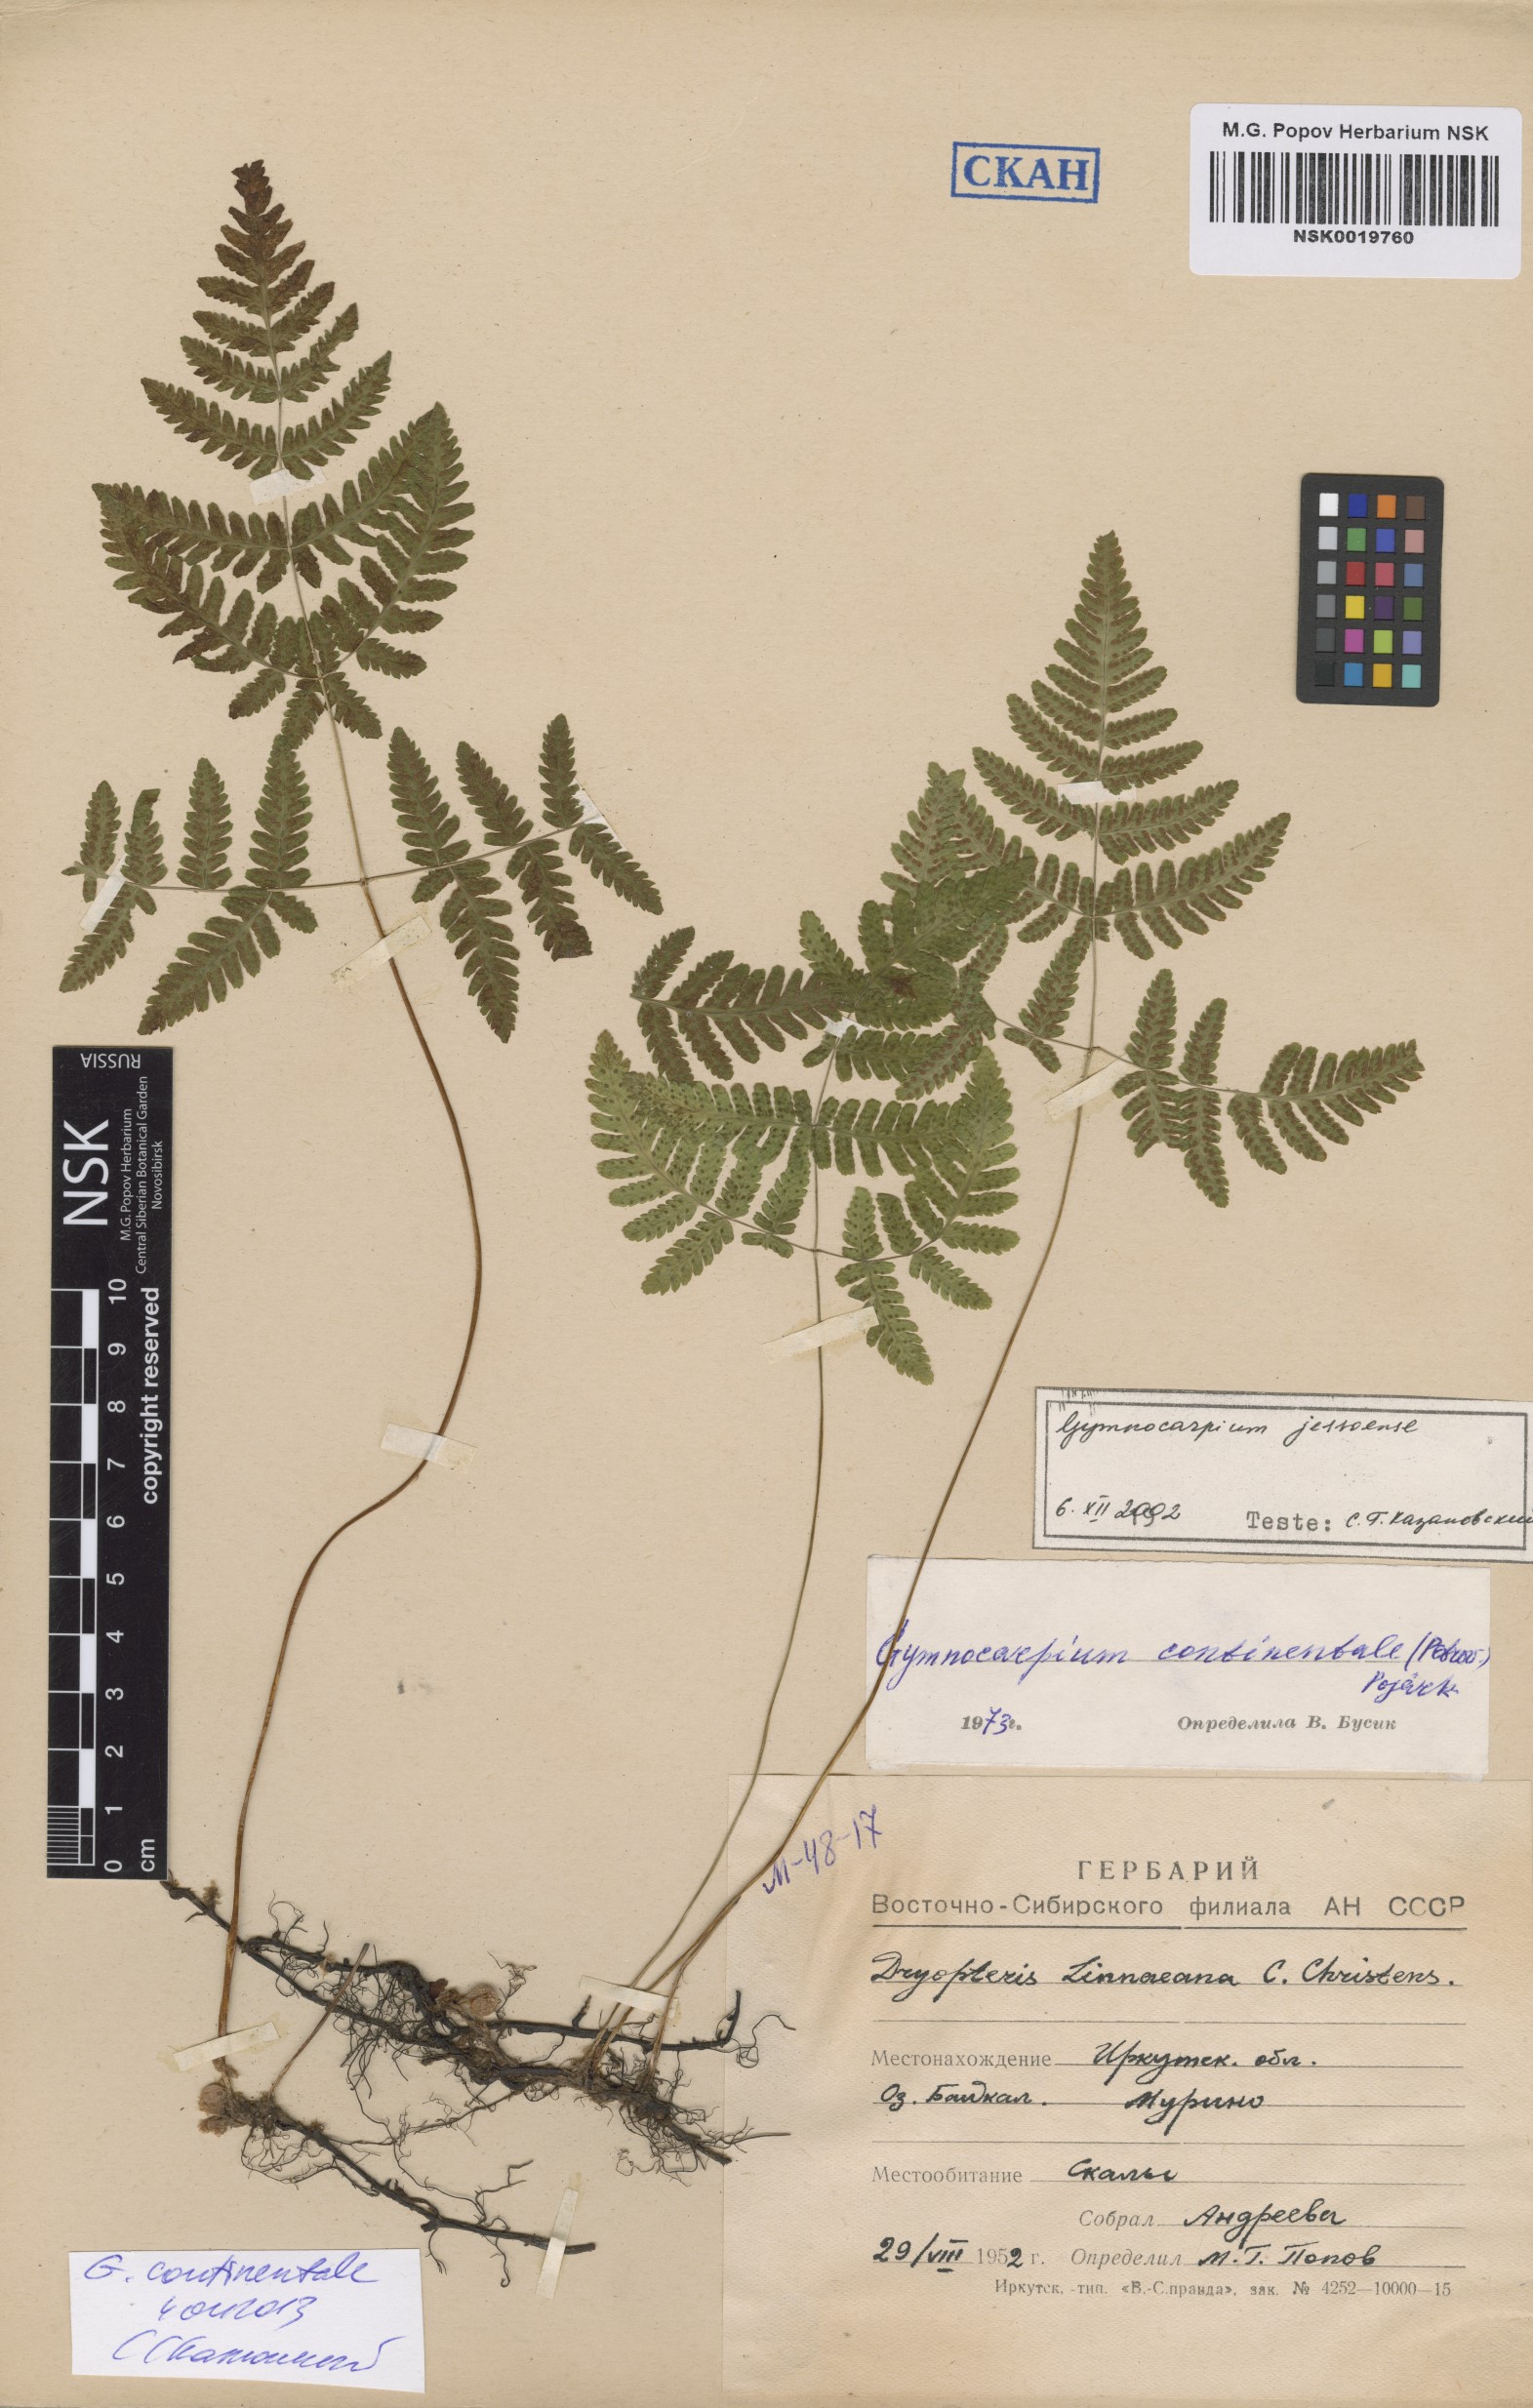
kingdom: Plantae
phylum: Tracheophyta
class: Polypodiopsida
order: Polypodiales
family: Cystopteridaceae
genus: Gymnocarpium
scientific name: Gymnocarpium continentale
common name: Asian oak fern
